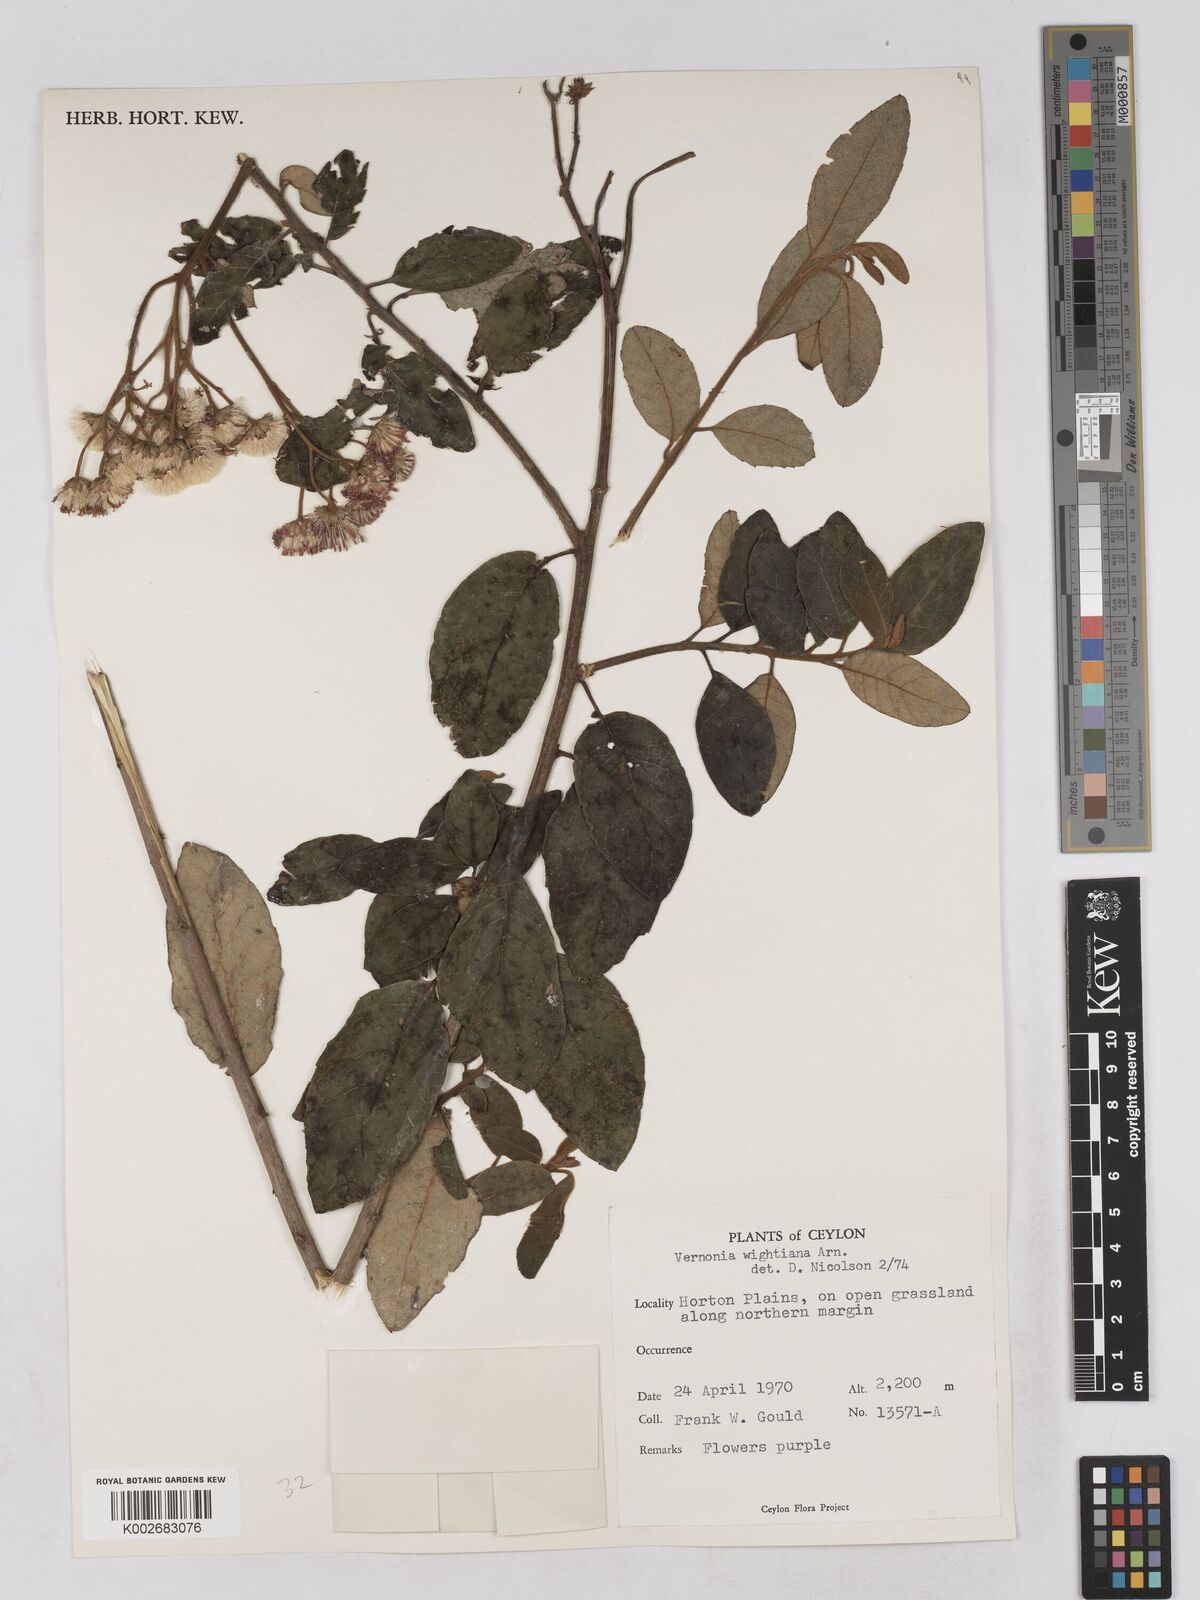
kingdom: Plantae
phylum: Tracheophyta
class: Magnoliopsida
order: Asterales
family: Asteraceae
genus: Uniyala
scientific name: Uniyala wightiana
